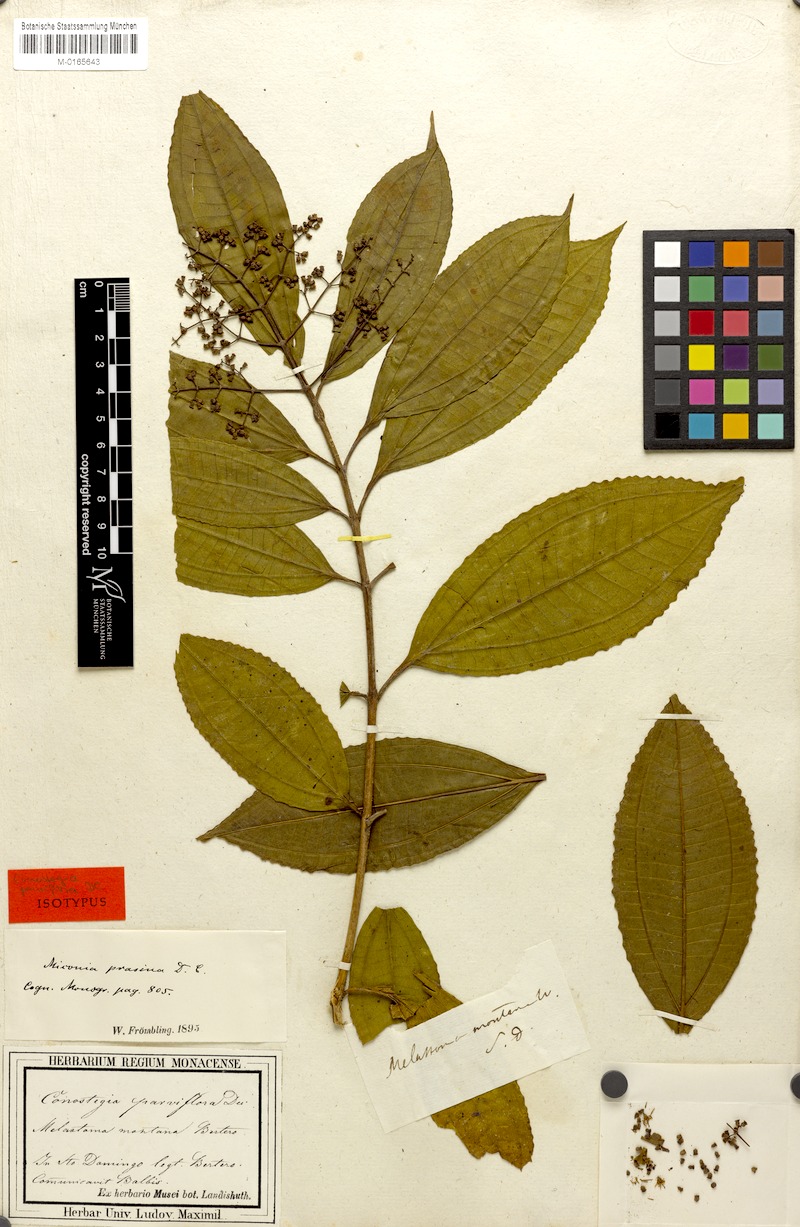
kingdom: Plantae
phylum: Tracheophyta
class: Magnoliopsida
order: Myrtales
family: Melastomataceae
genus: Miconia
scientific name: Miconia prasina
